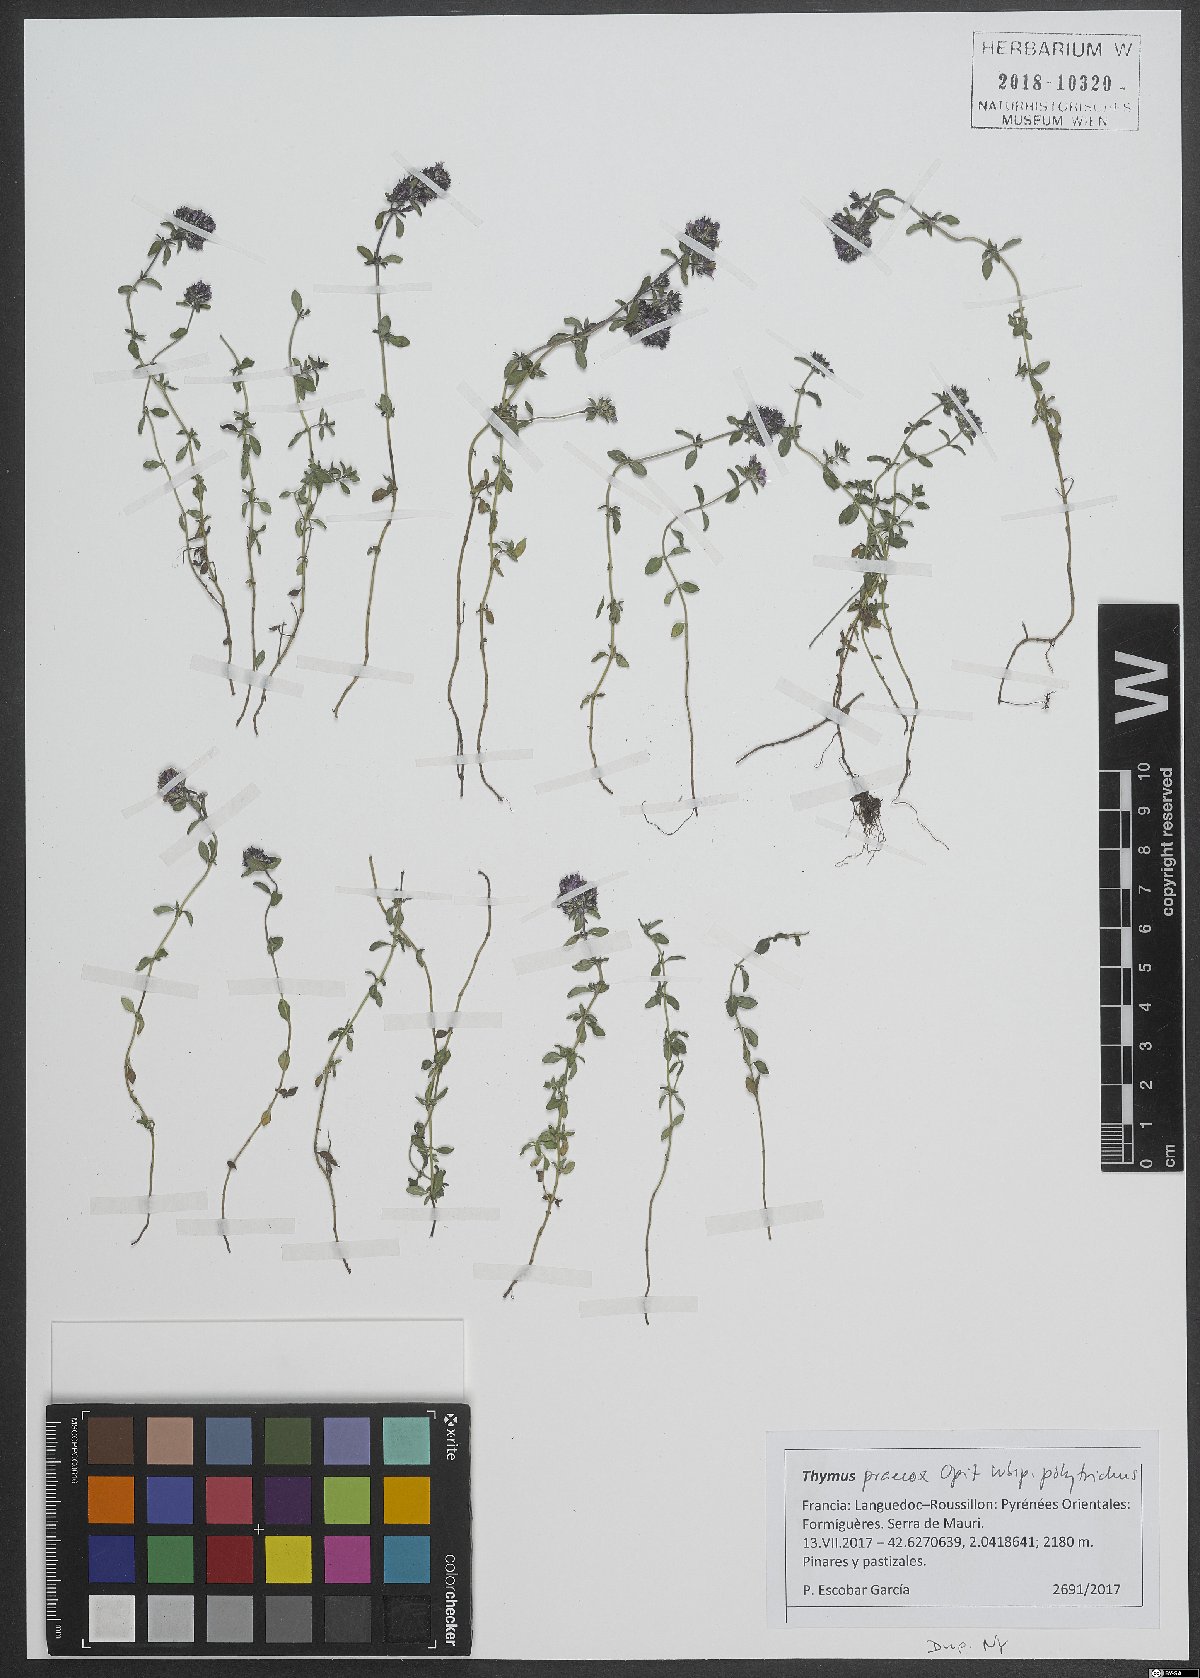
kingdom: Plantae
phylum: Tracheophyta
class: Magnoliopsida
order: Lamiales
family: Lamiaceae
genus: Thymus
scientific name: Thymus praecox
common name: Wild thyme
